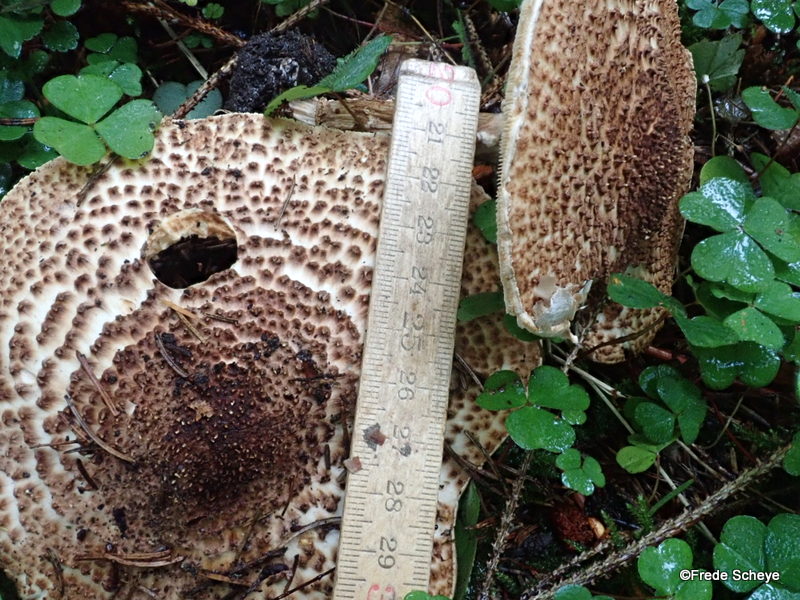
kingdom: Fungi
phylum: Basidiomycota
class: Agaricomycetes
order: Agaricales
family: Agaricaceae
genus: Echinoderma
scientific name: Echinoderma asperum
